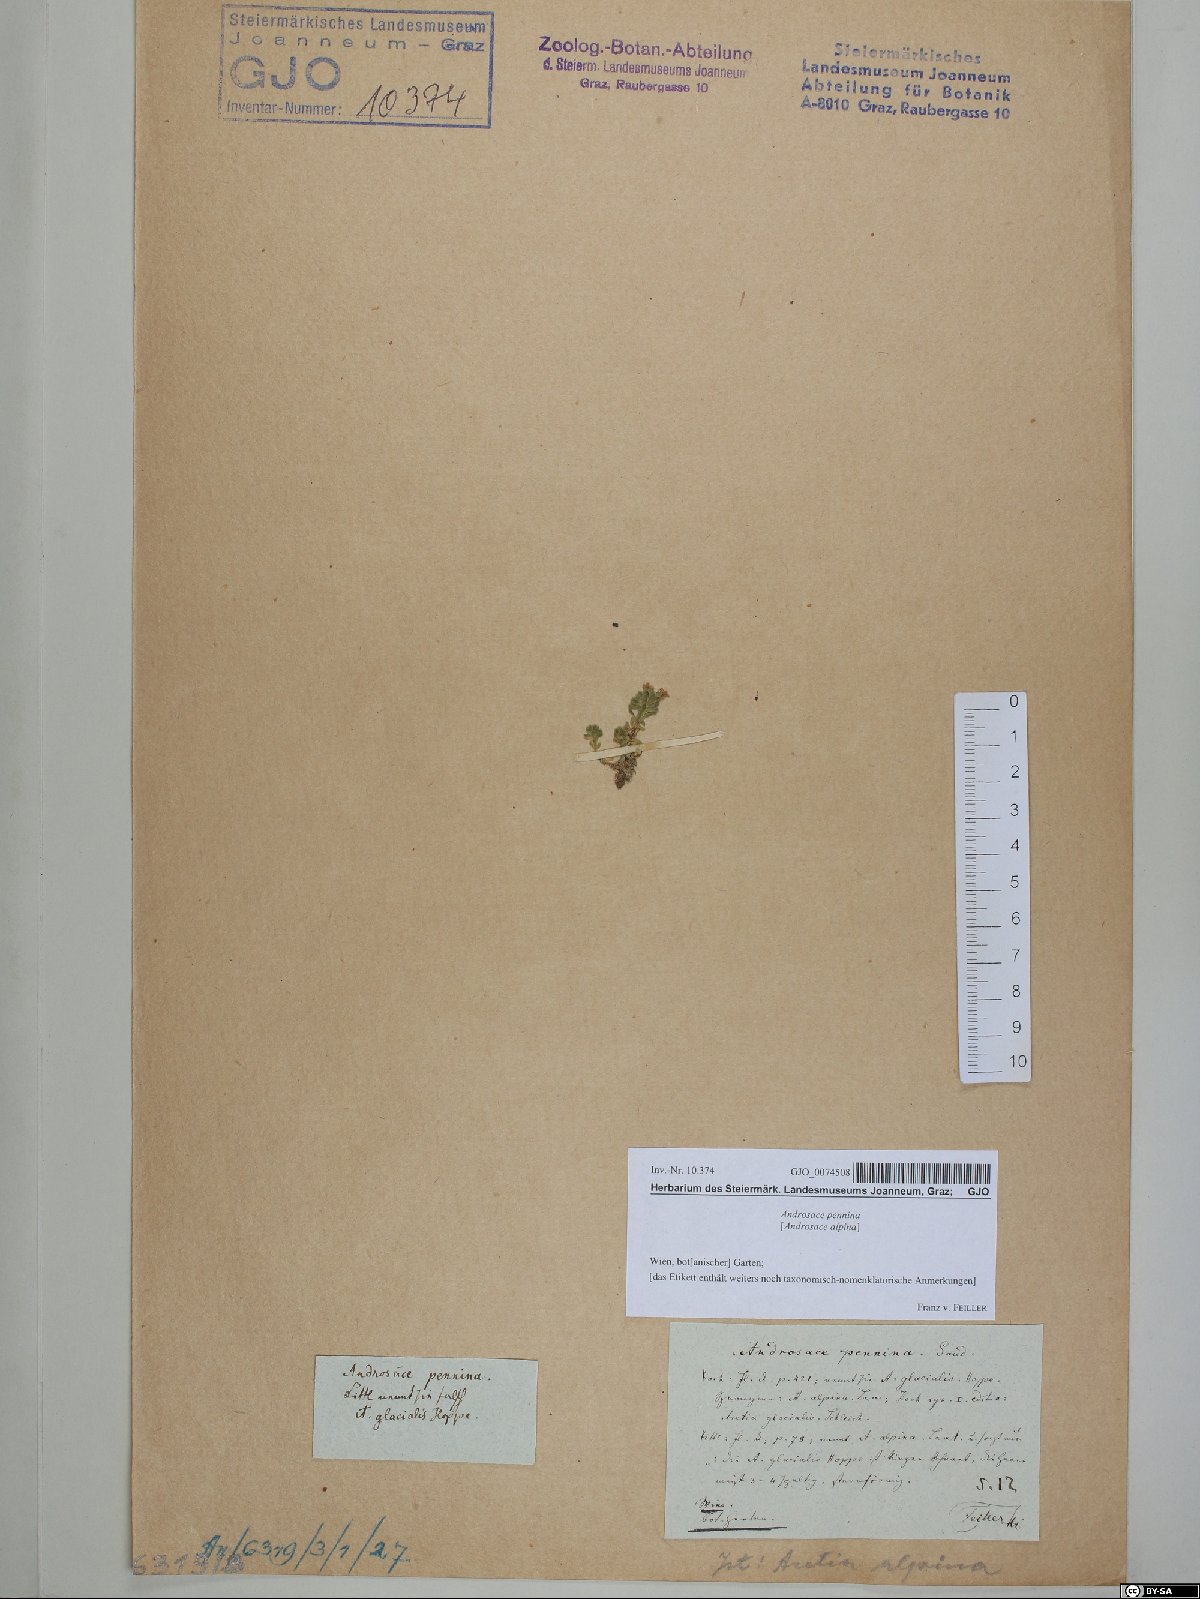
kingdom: Plantae
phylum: Tracheophyta
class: Magnoliopsida
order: Ericales
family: Primulaceae
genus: Androsace
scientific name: Androsace alpina
